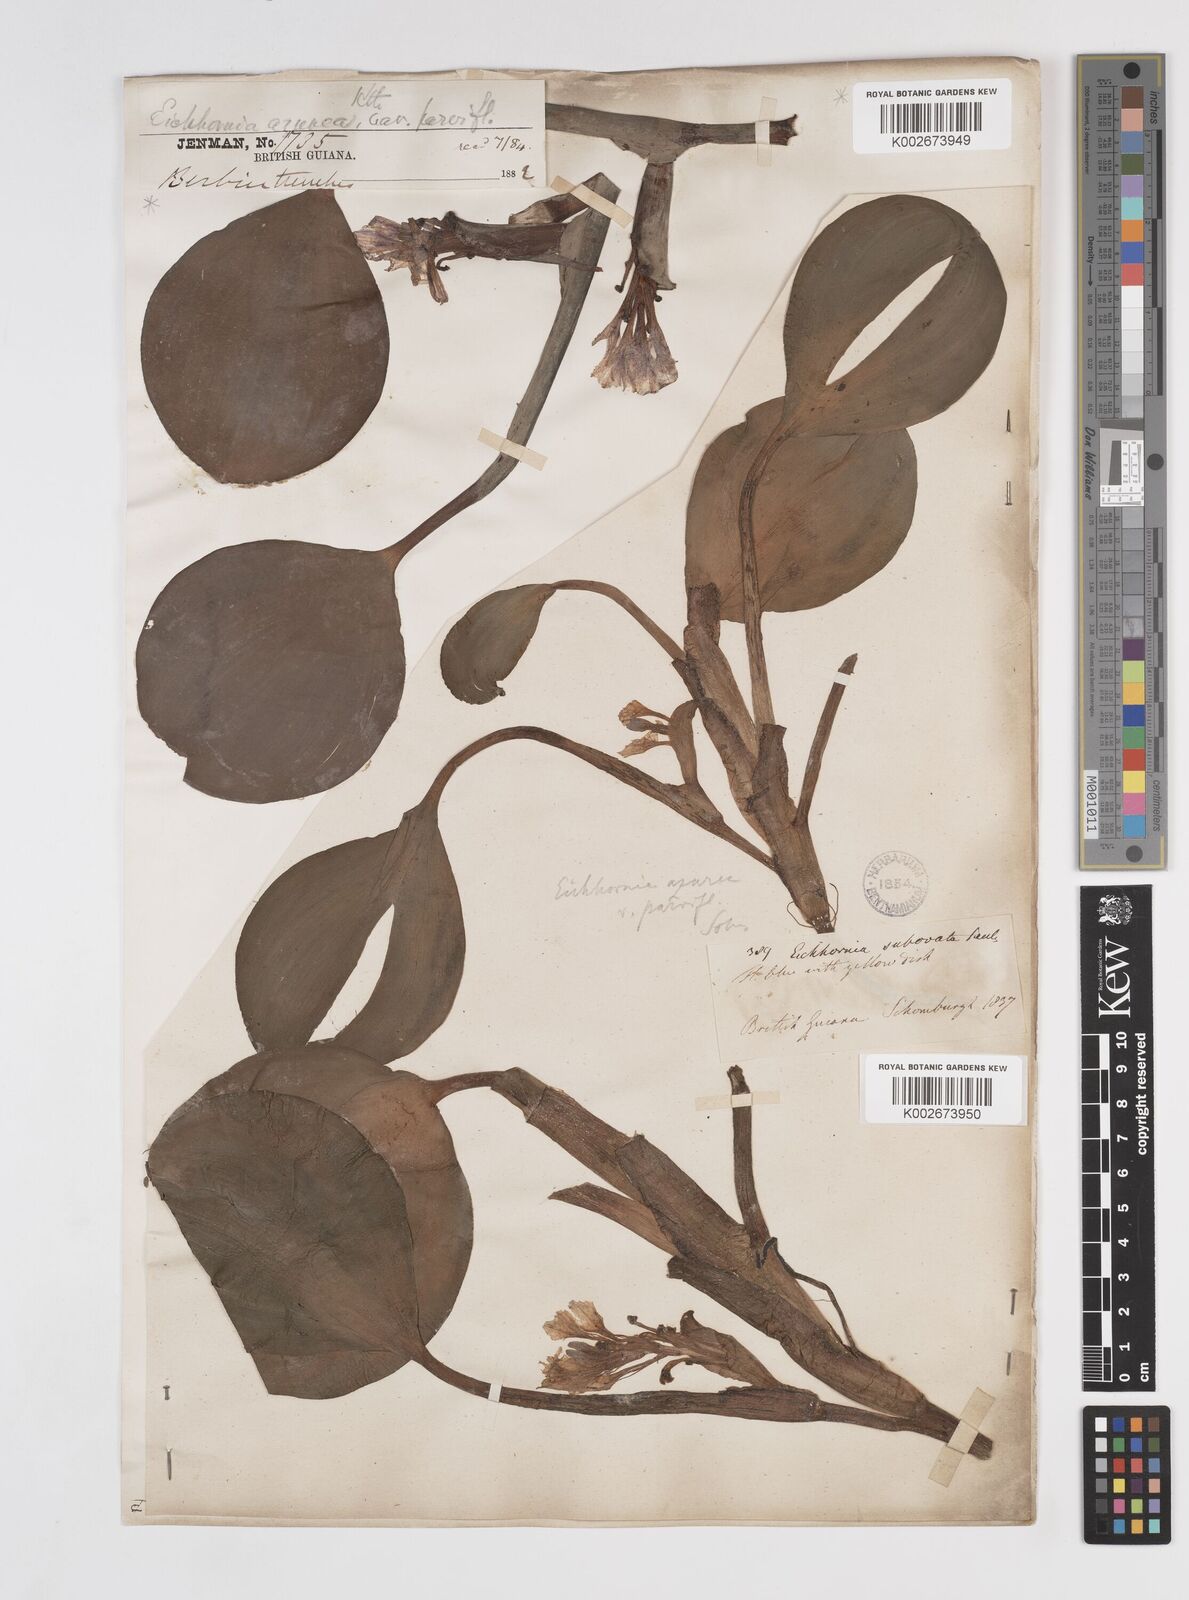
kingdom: Plantae
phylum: Tracheophyta
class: Liliopsida
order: Commelinales
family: Pontederiaceae
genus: Pontederia
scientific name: Pontederia azurea
